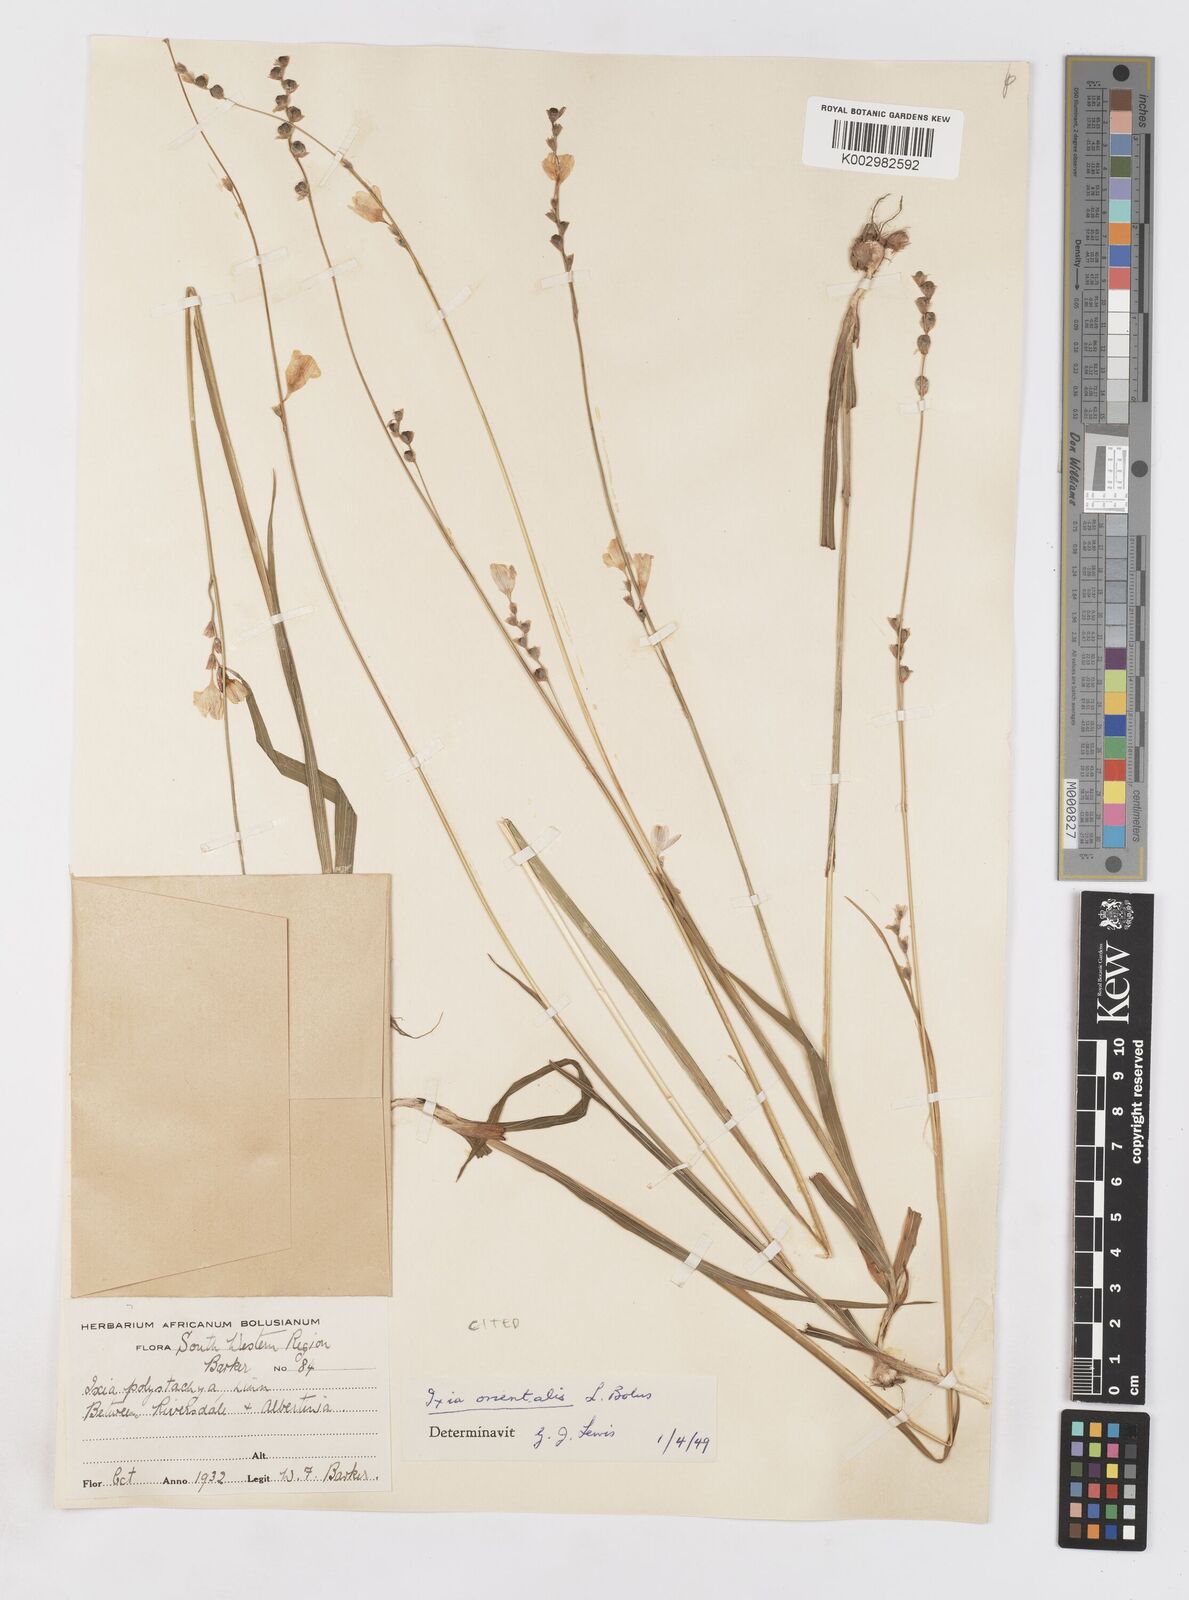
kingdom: Plantae
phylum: Tracheophyta
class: Liliopsida
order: Asparagales
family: Iridaceae
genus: Ixia
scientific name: Ixia orientalis
